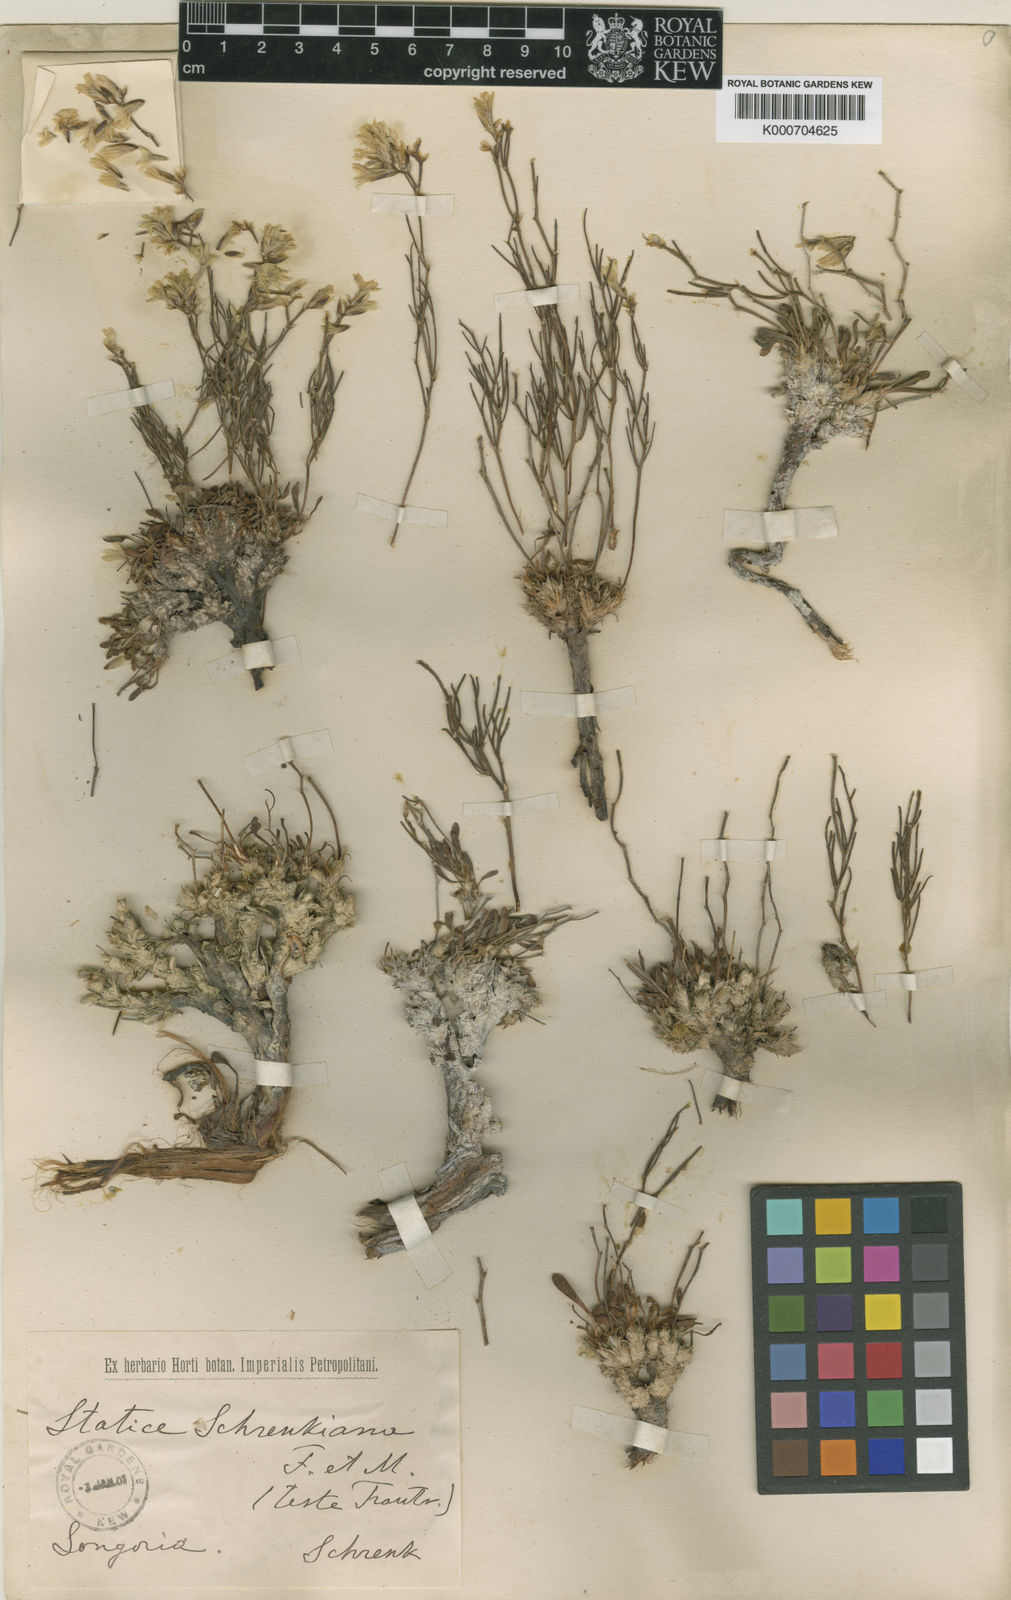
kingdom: Plantae
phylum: Tracheophyta
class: Magnoliopsida
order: Caryophyllales
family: Plumbaginaceae
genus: Limonium
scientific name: Limonium chrysocomum
